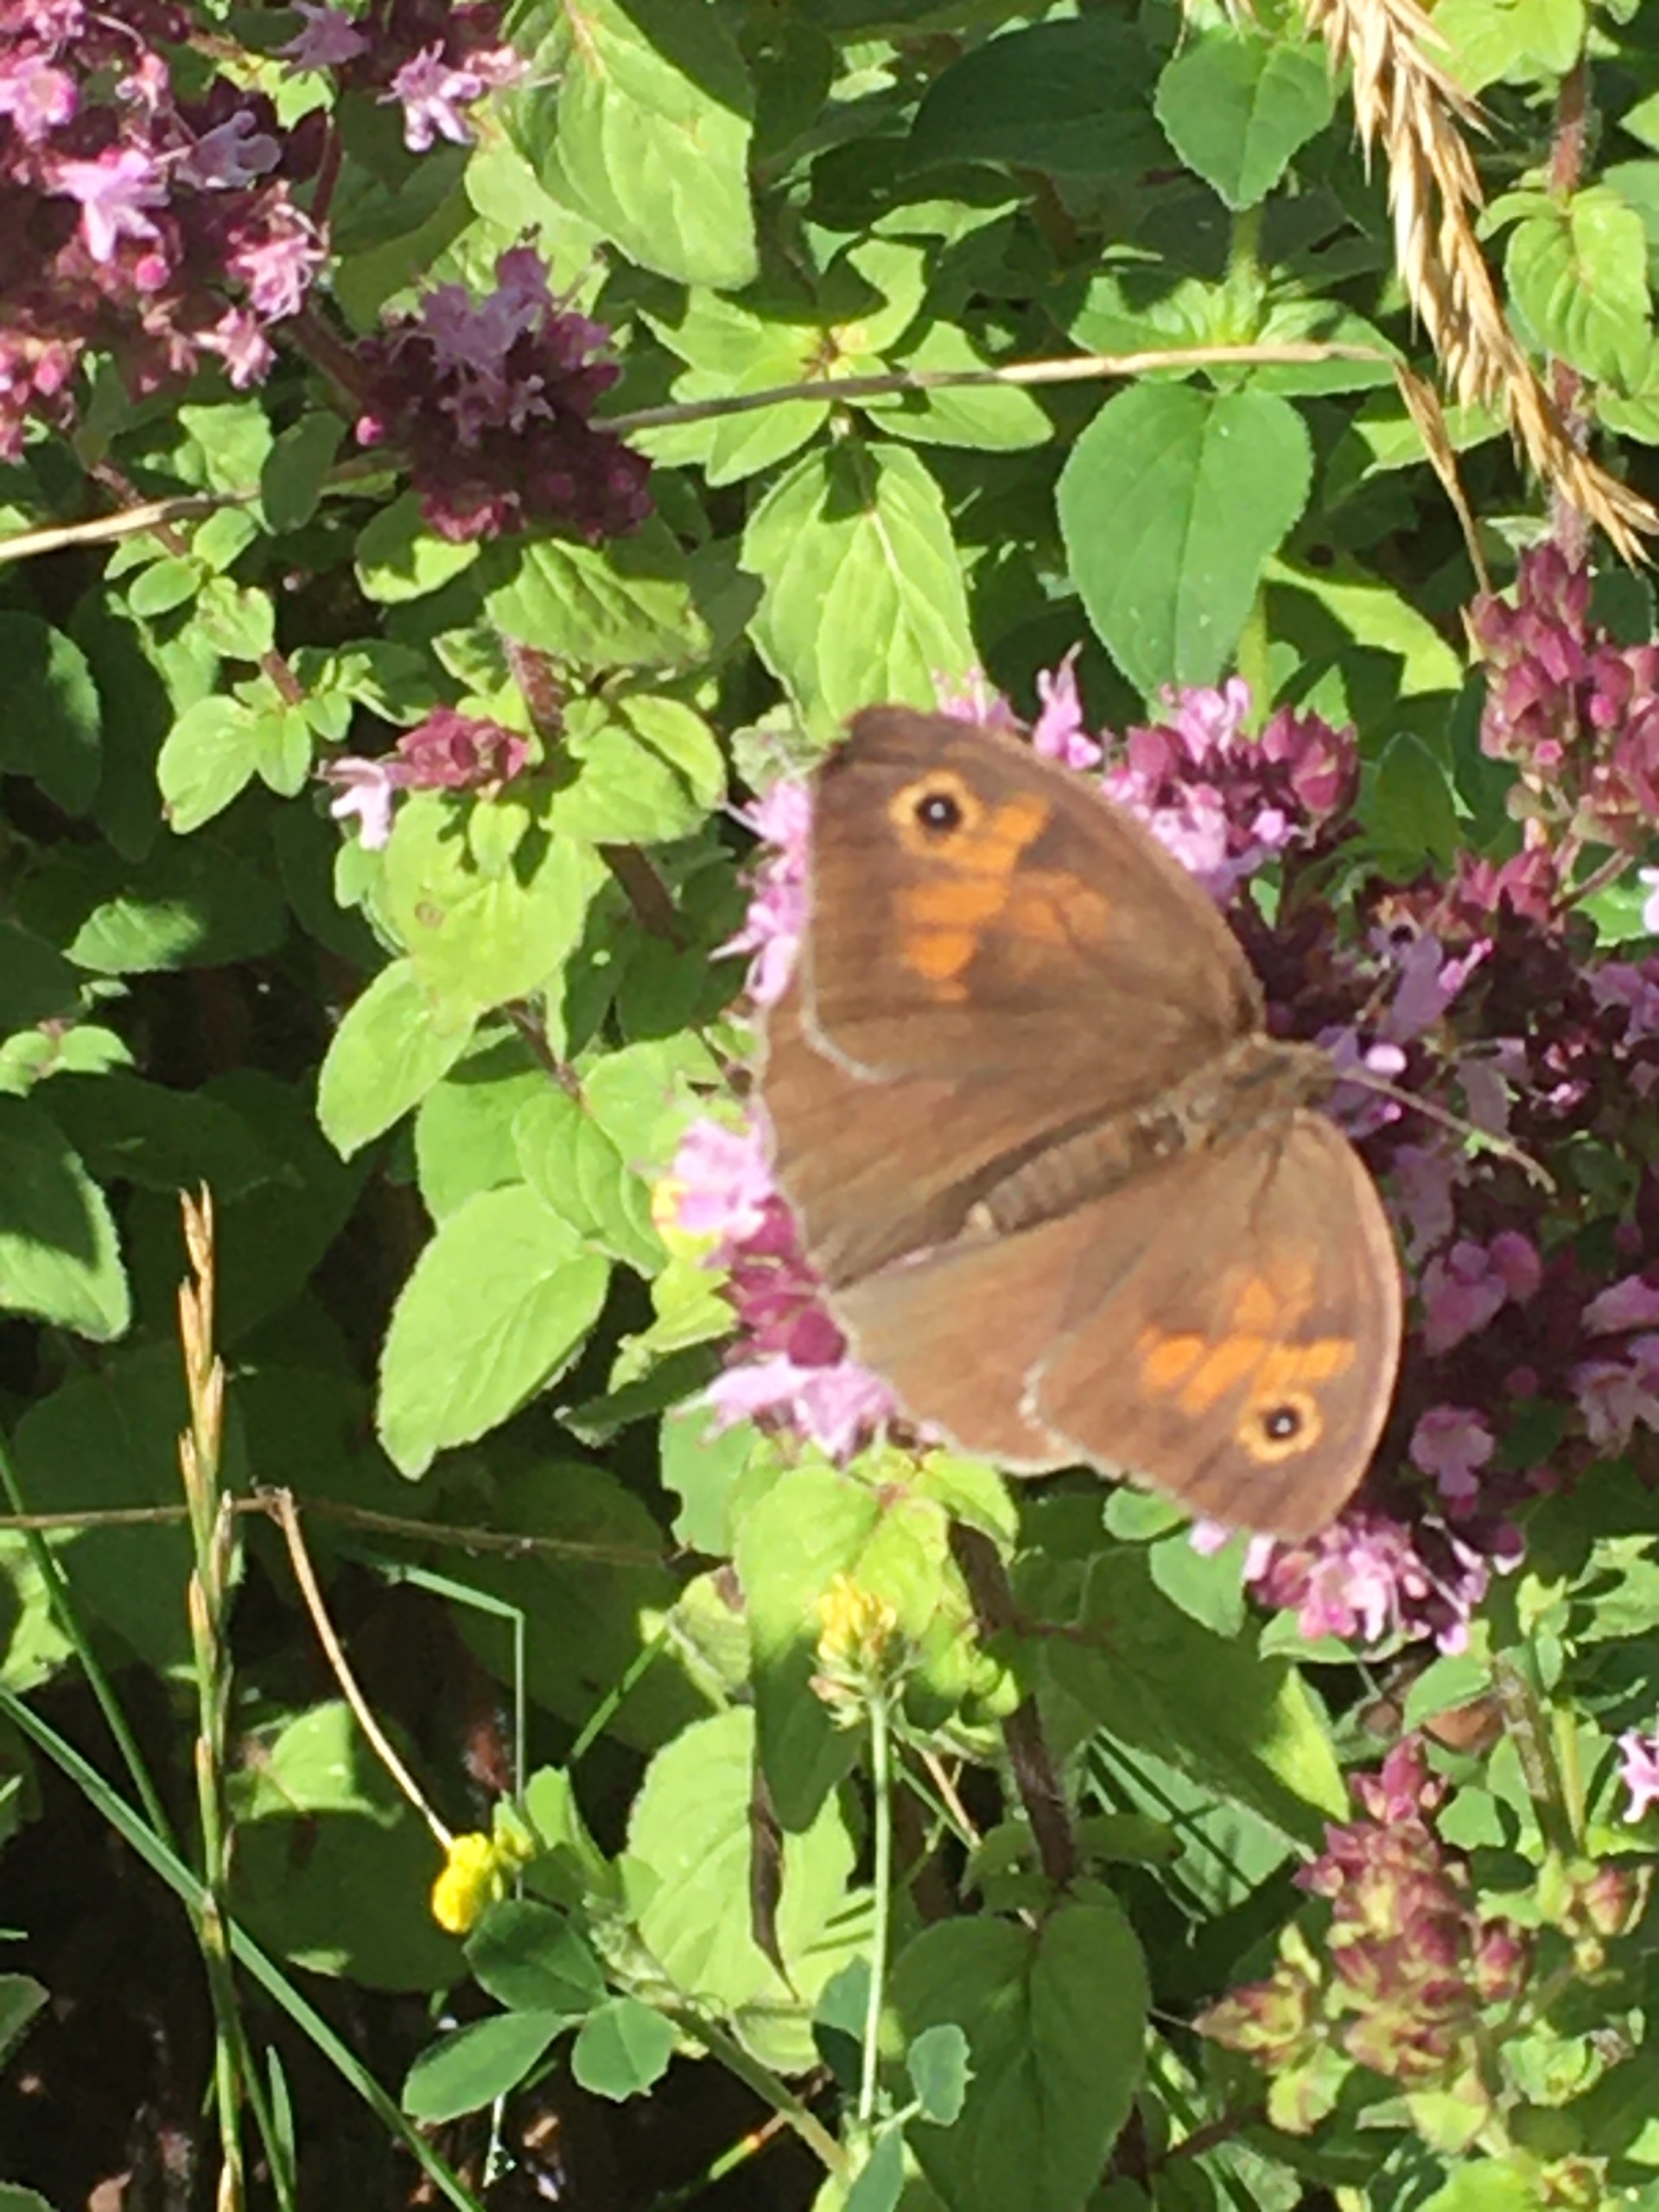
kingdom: Animalia
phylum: Arthropoda
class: Insecta
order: Lepidoptera
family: Nymphalidae
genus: Maniola
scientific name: Maniola jurtina
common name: Græsrandøje
